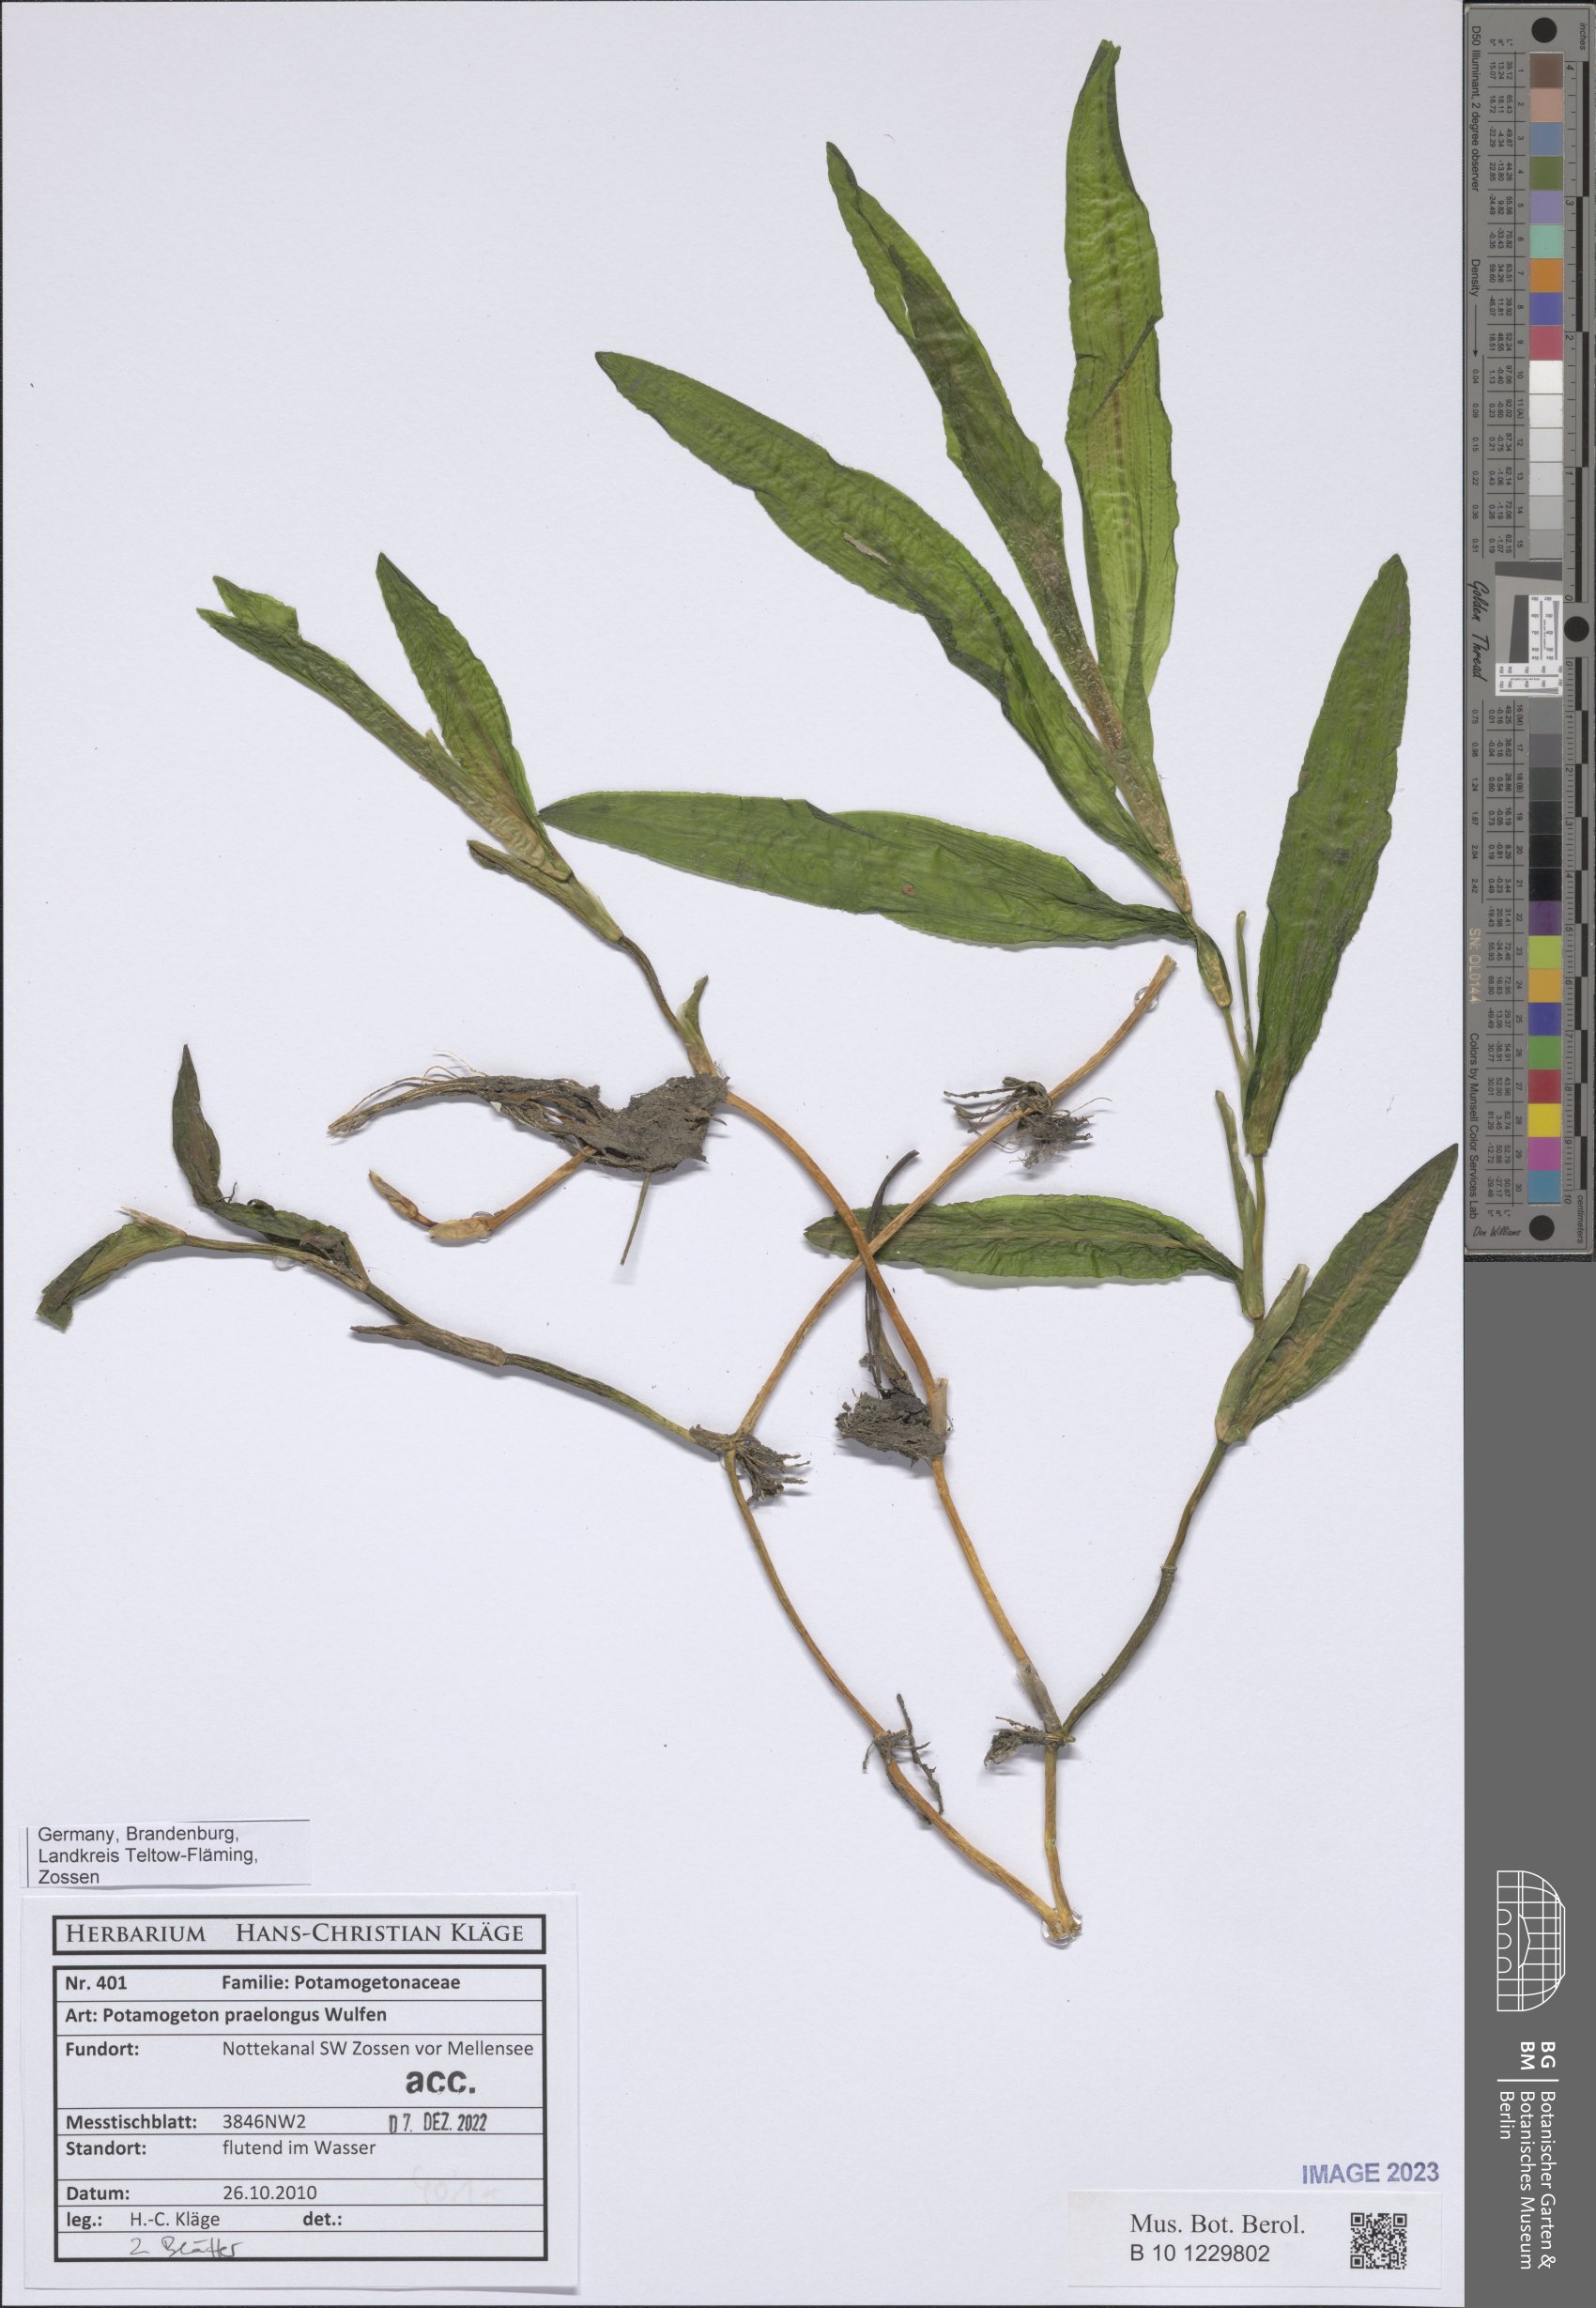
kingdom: Plantae
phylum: Tracheophyta
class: Liliopsida
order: Alismatales
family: Potamogetonaceae
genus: Potamogeton
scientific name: Potamogeton praelongus
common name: Long-stalked pondweed
